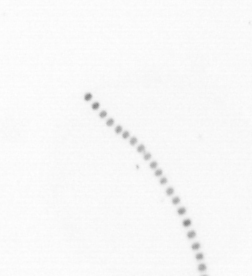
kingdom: Chromista
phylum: Ochrophyta
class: Bacillariophyceae
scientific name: Bacillariophyceae
